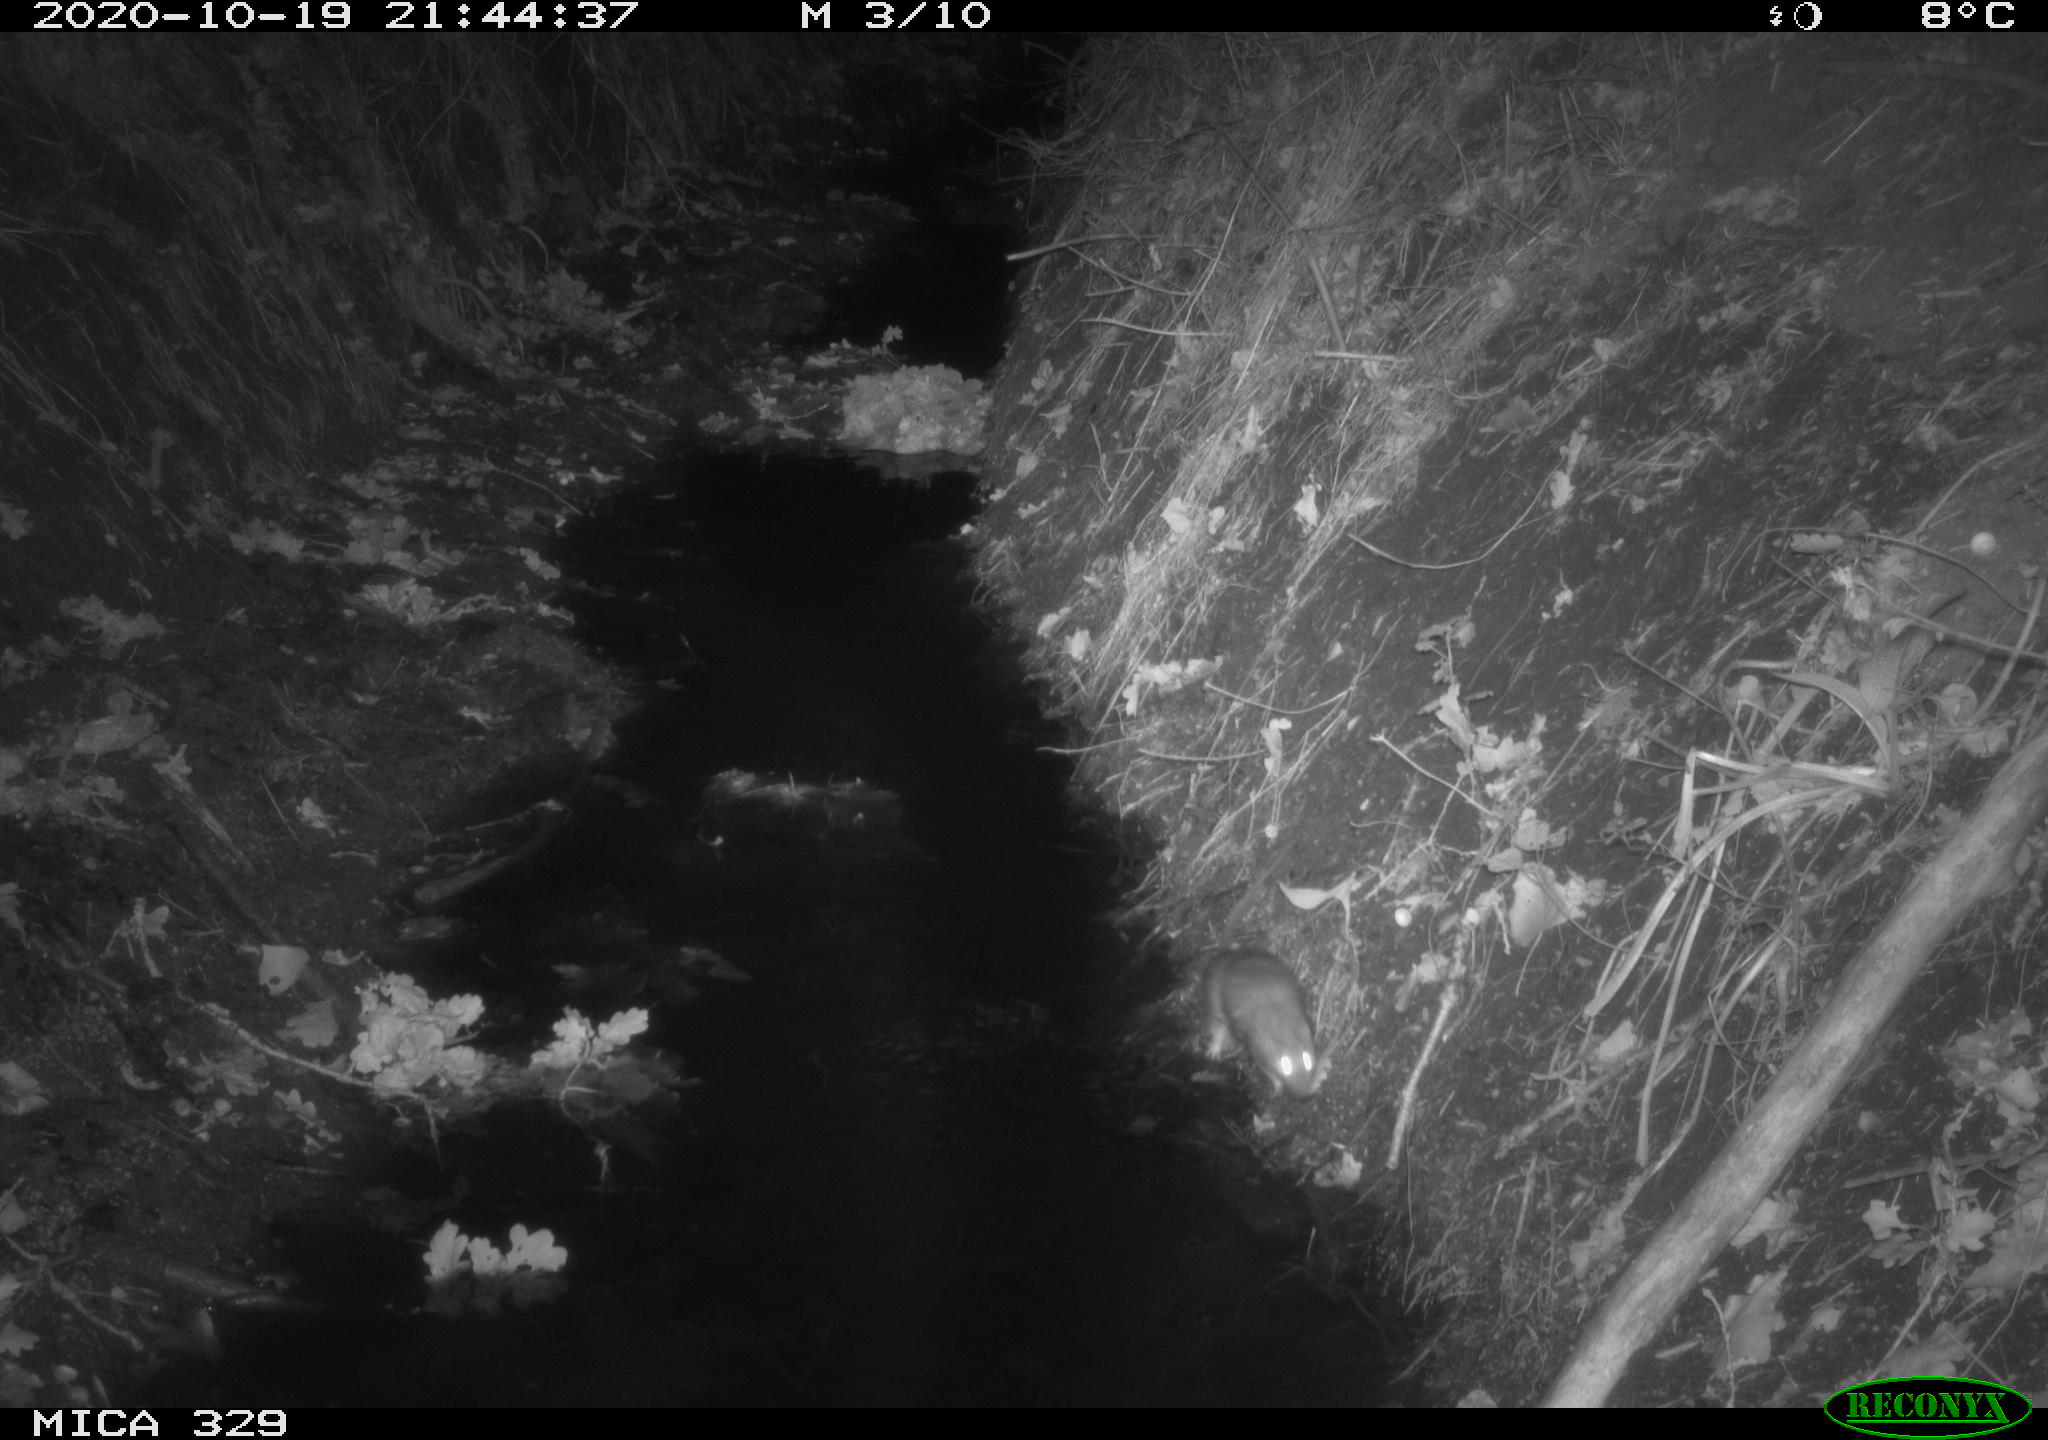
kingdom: Animalia
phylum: Chordata
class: Mammalia
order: Rodentia
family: Muridae
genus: Rattus
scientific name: Rattus norvegicus
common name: Brown rat
